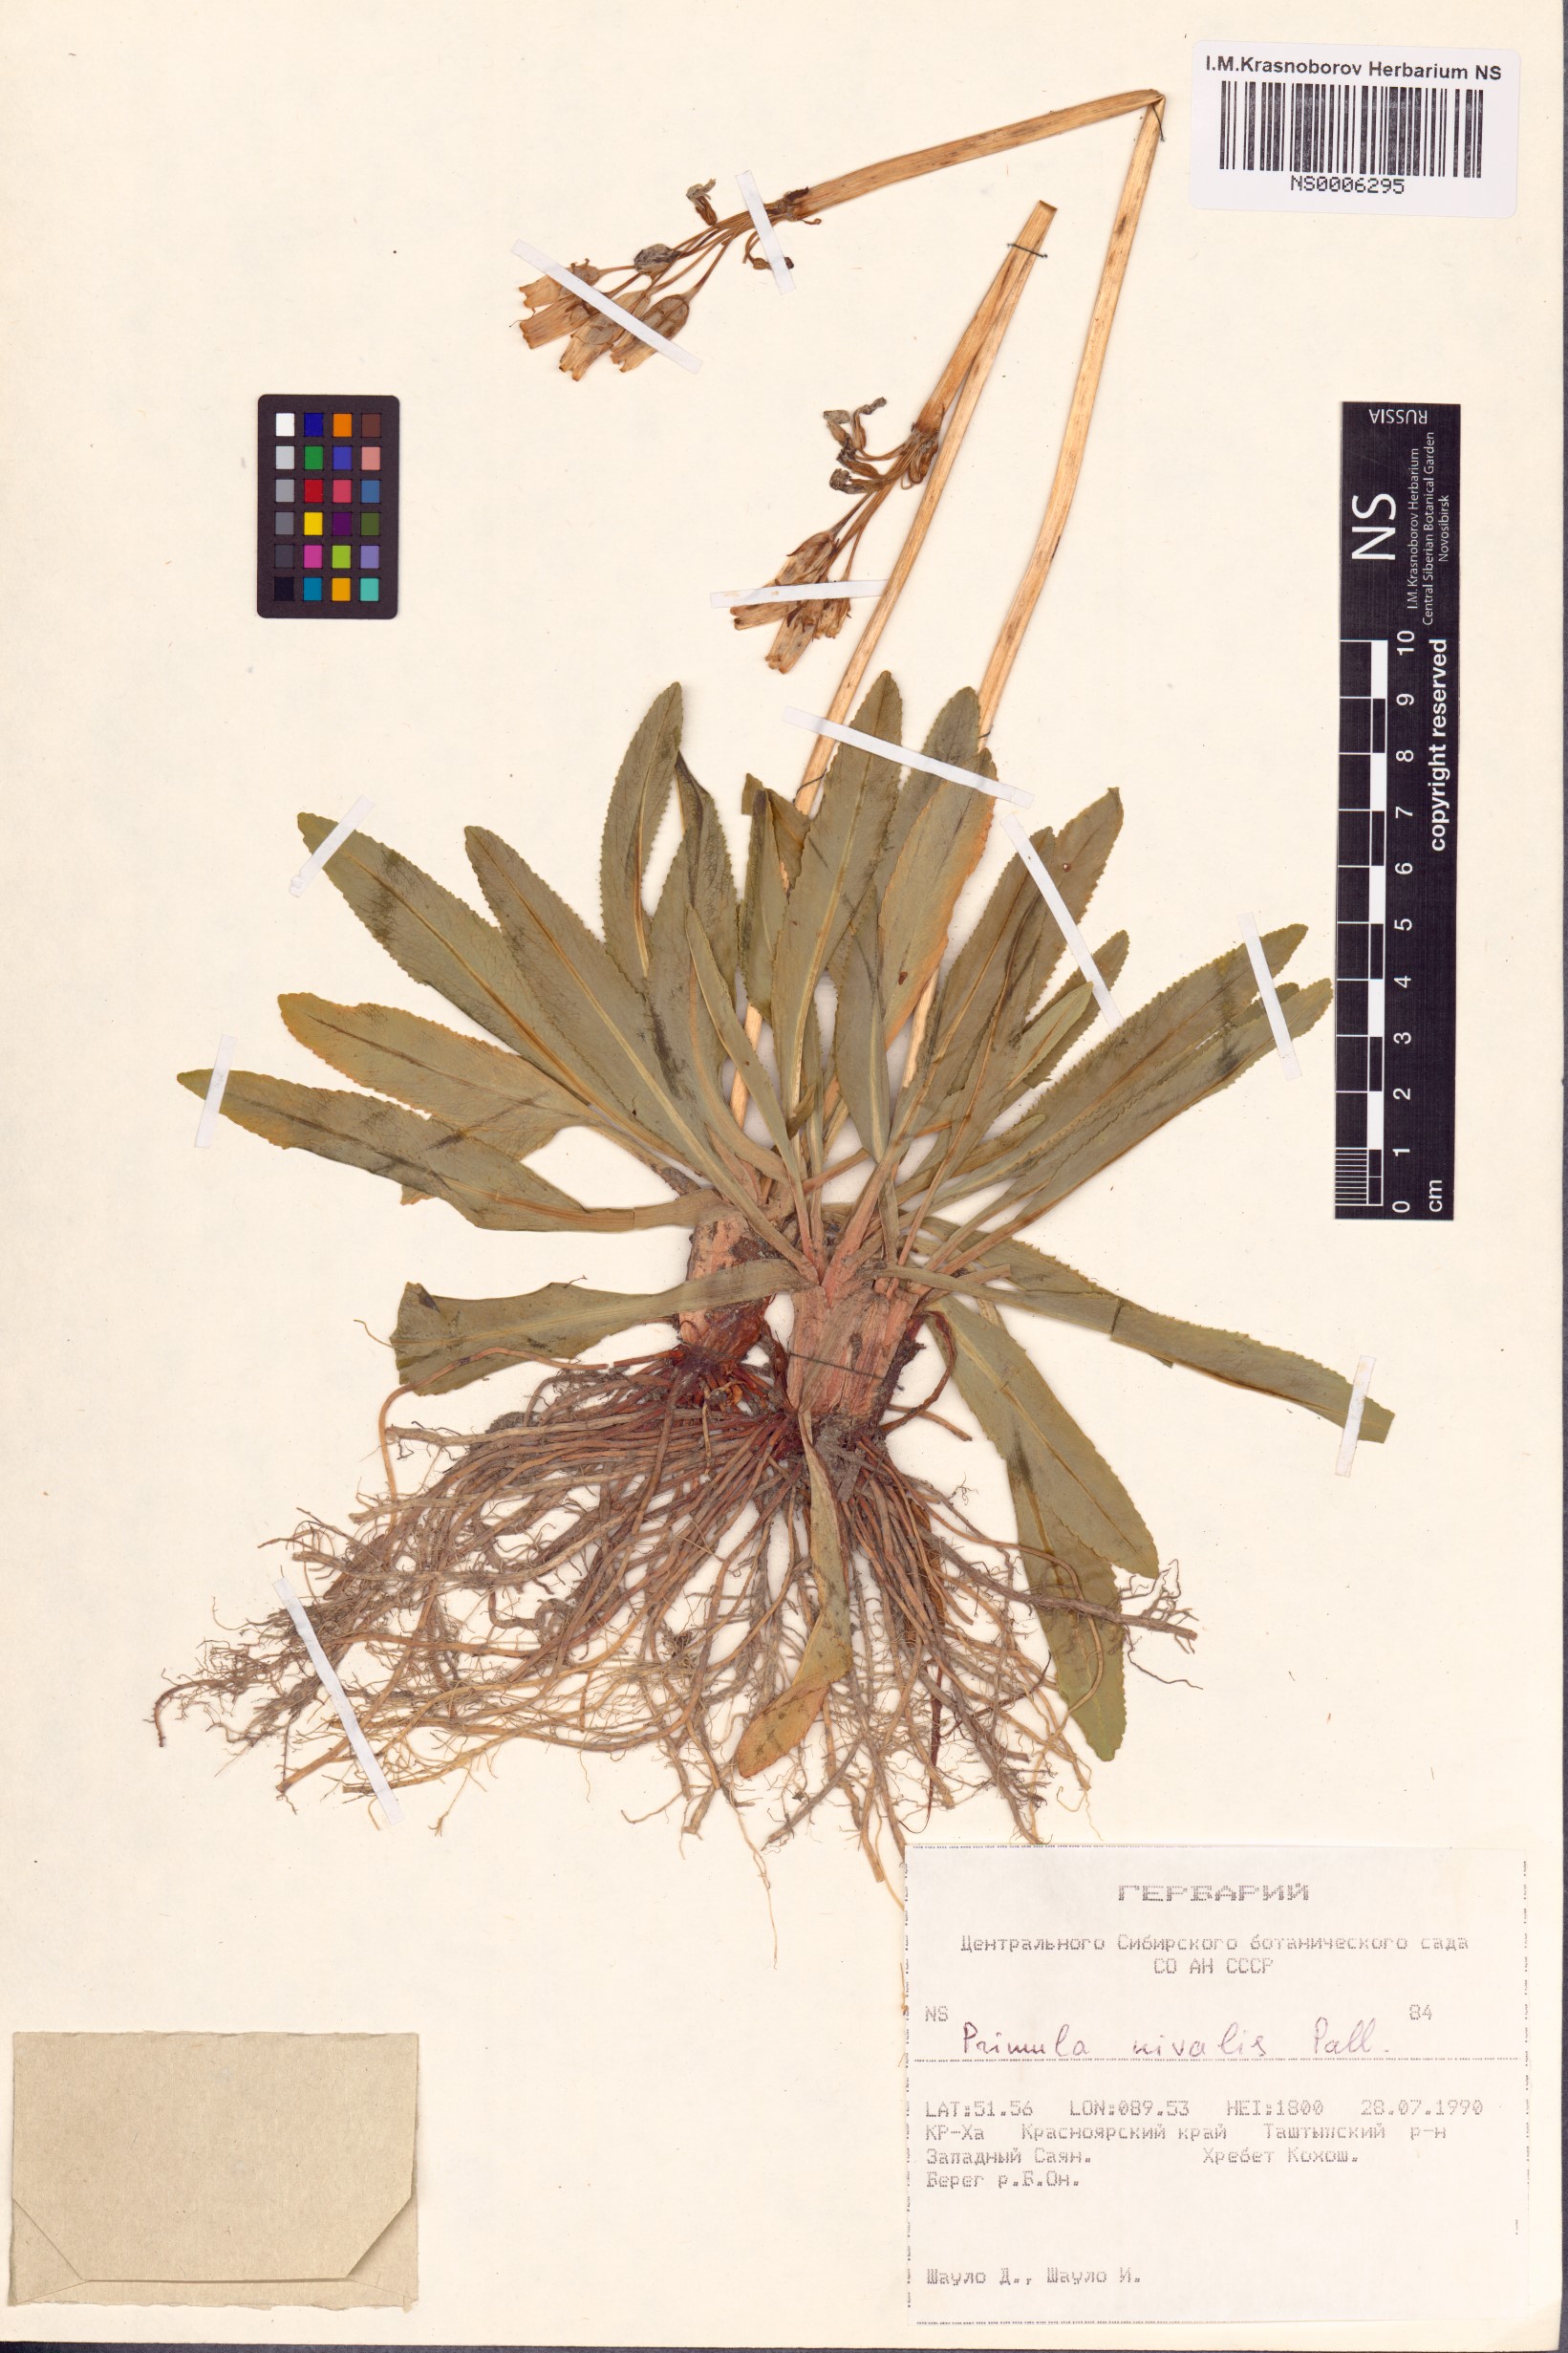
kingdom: Plantae
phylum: Tracheophyta
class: Magnoliopsida
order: Ericales
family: Primulaceae
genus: Primula
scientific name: Primula nivalis
